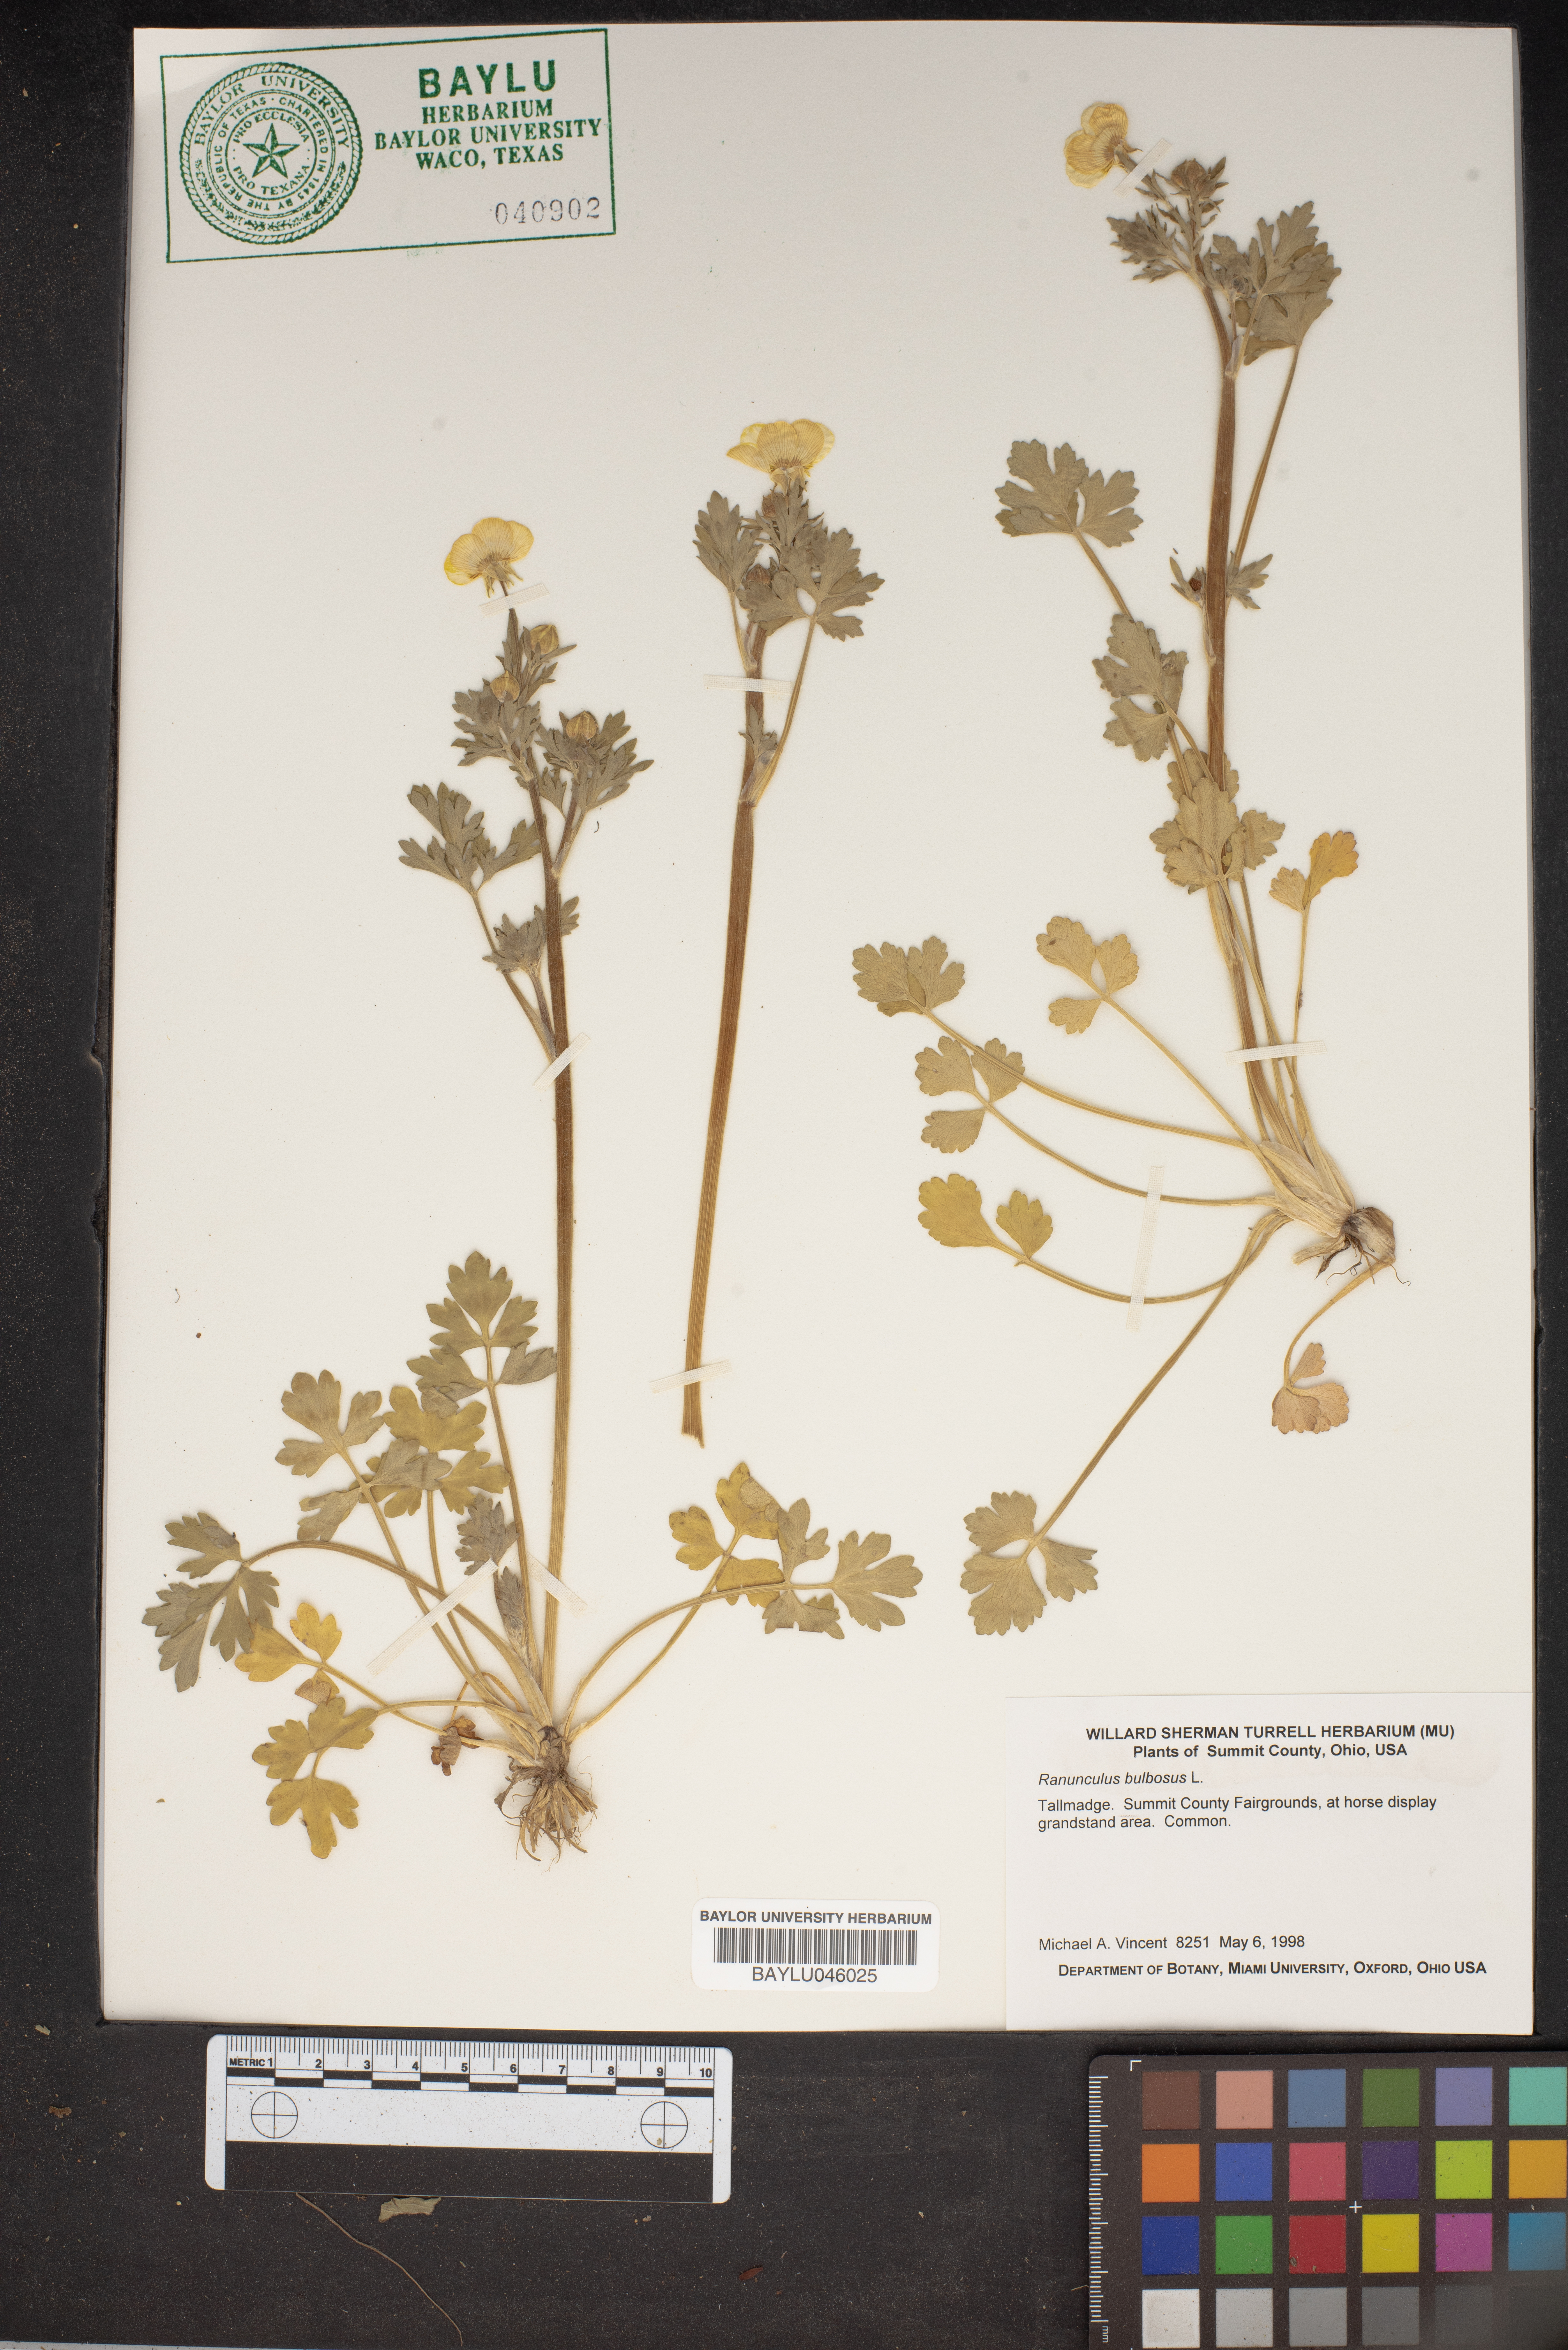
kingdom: Plantae
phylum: Tracheophyta
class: Magnoliopsida
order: Ranunculales
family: Ranunculaceae
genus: Ranunculus
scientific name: Ranunculus bulbosus
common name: Bulbous buttercup
